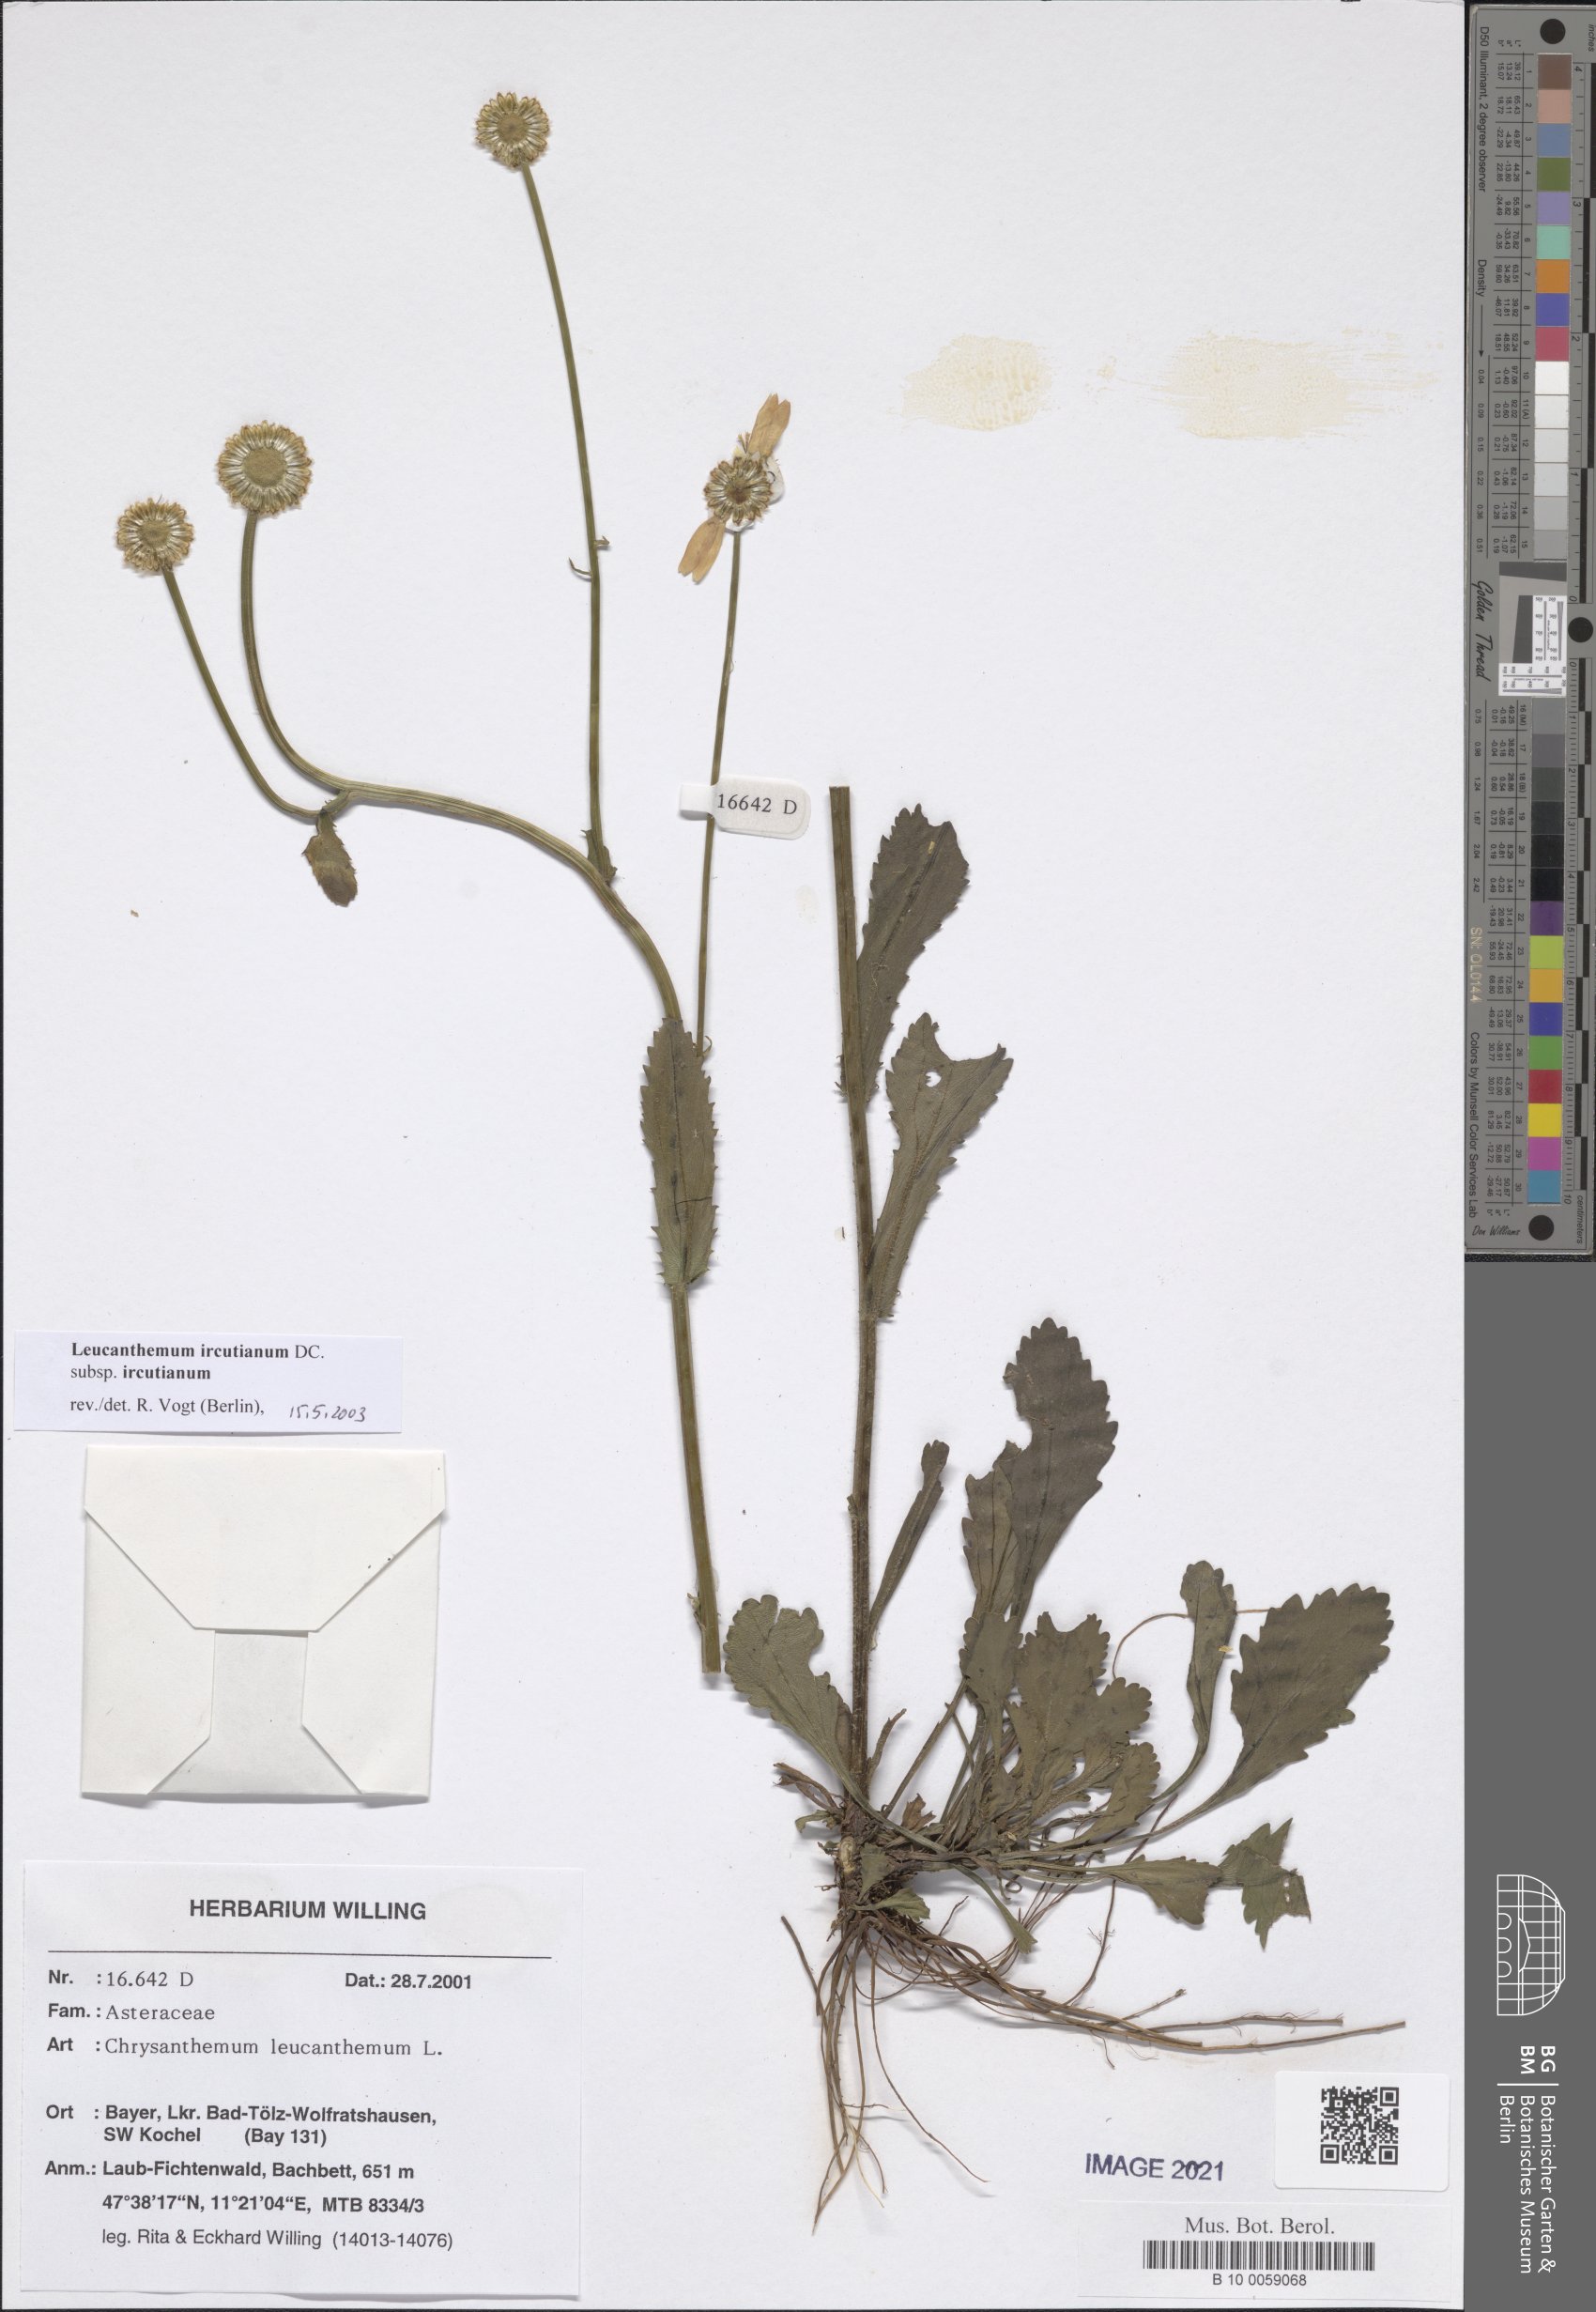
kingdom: Plantae
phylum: Tracheophyta
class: Magnoliopsida
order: Asterales
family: Asteraceae
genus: Leucanthemum
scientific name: Leucanthemum ircutianum
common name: Daisy
